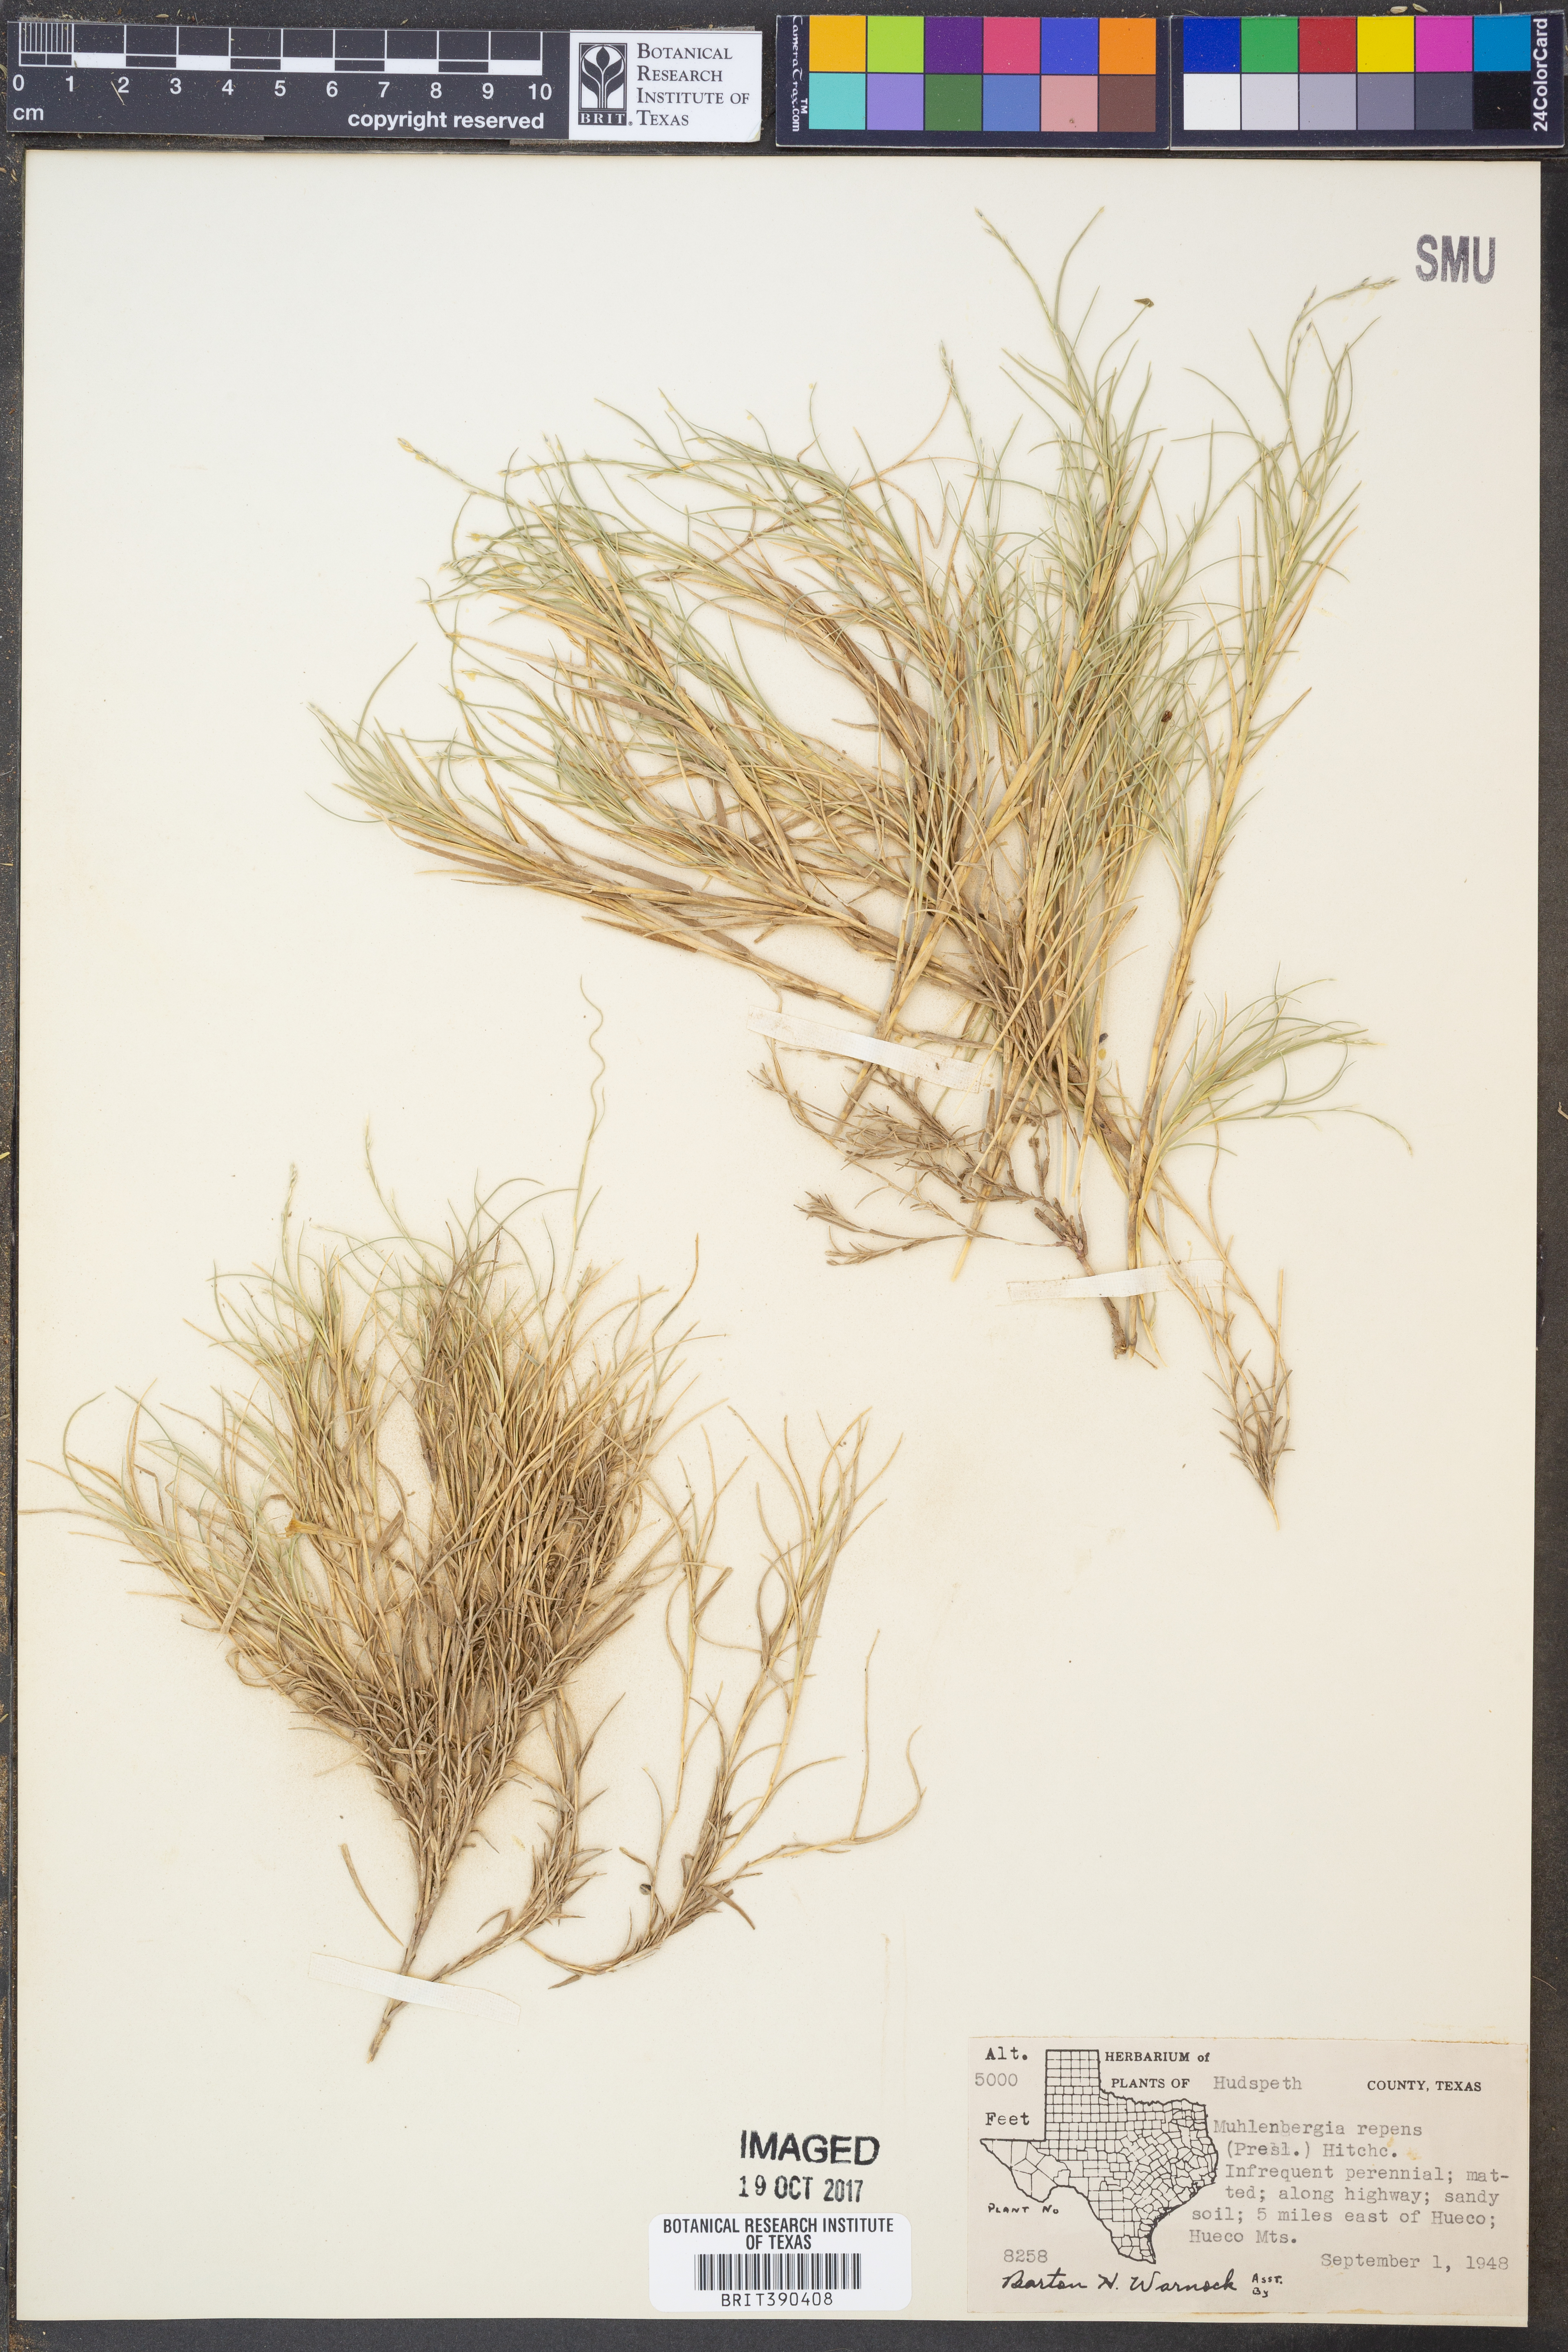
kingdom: Plantae
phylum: Tracheophyta
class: Liliopsida
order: Poales
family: Poaceae
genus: Muhlenbergia
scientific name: Muhlenbergia repens
